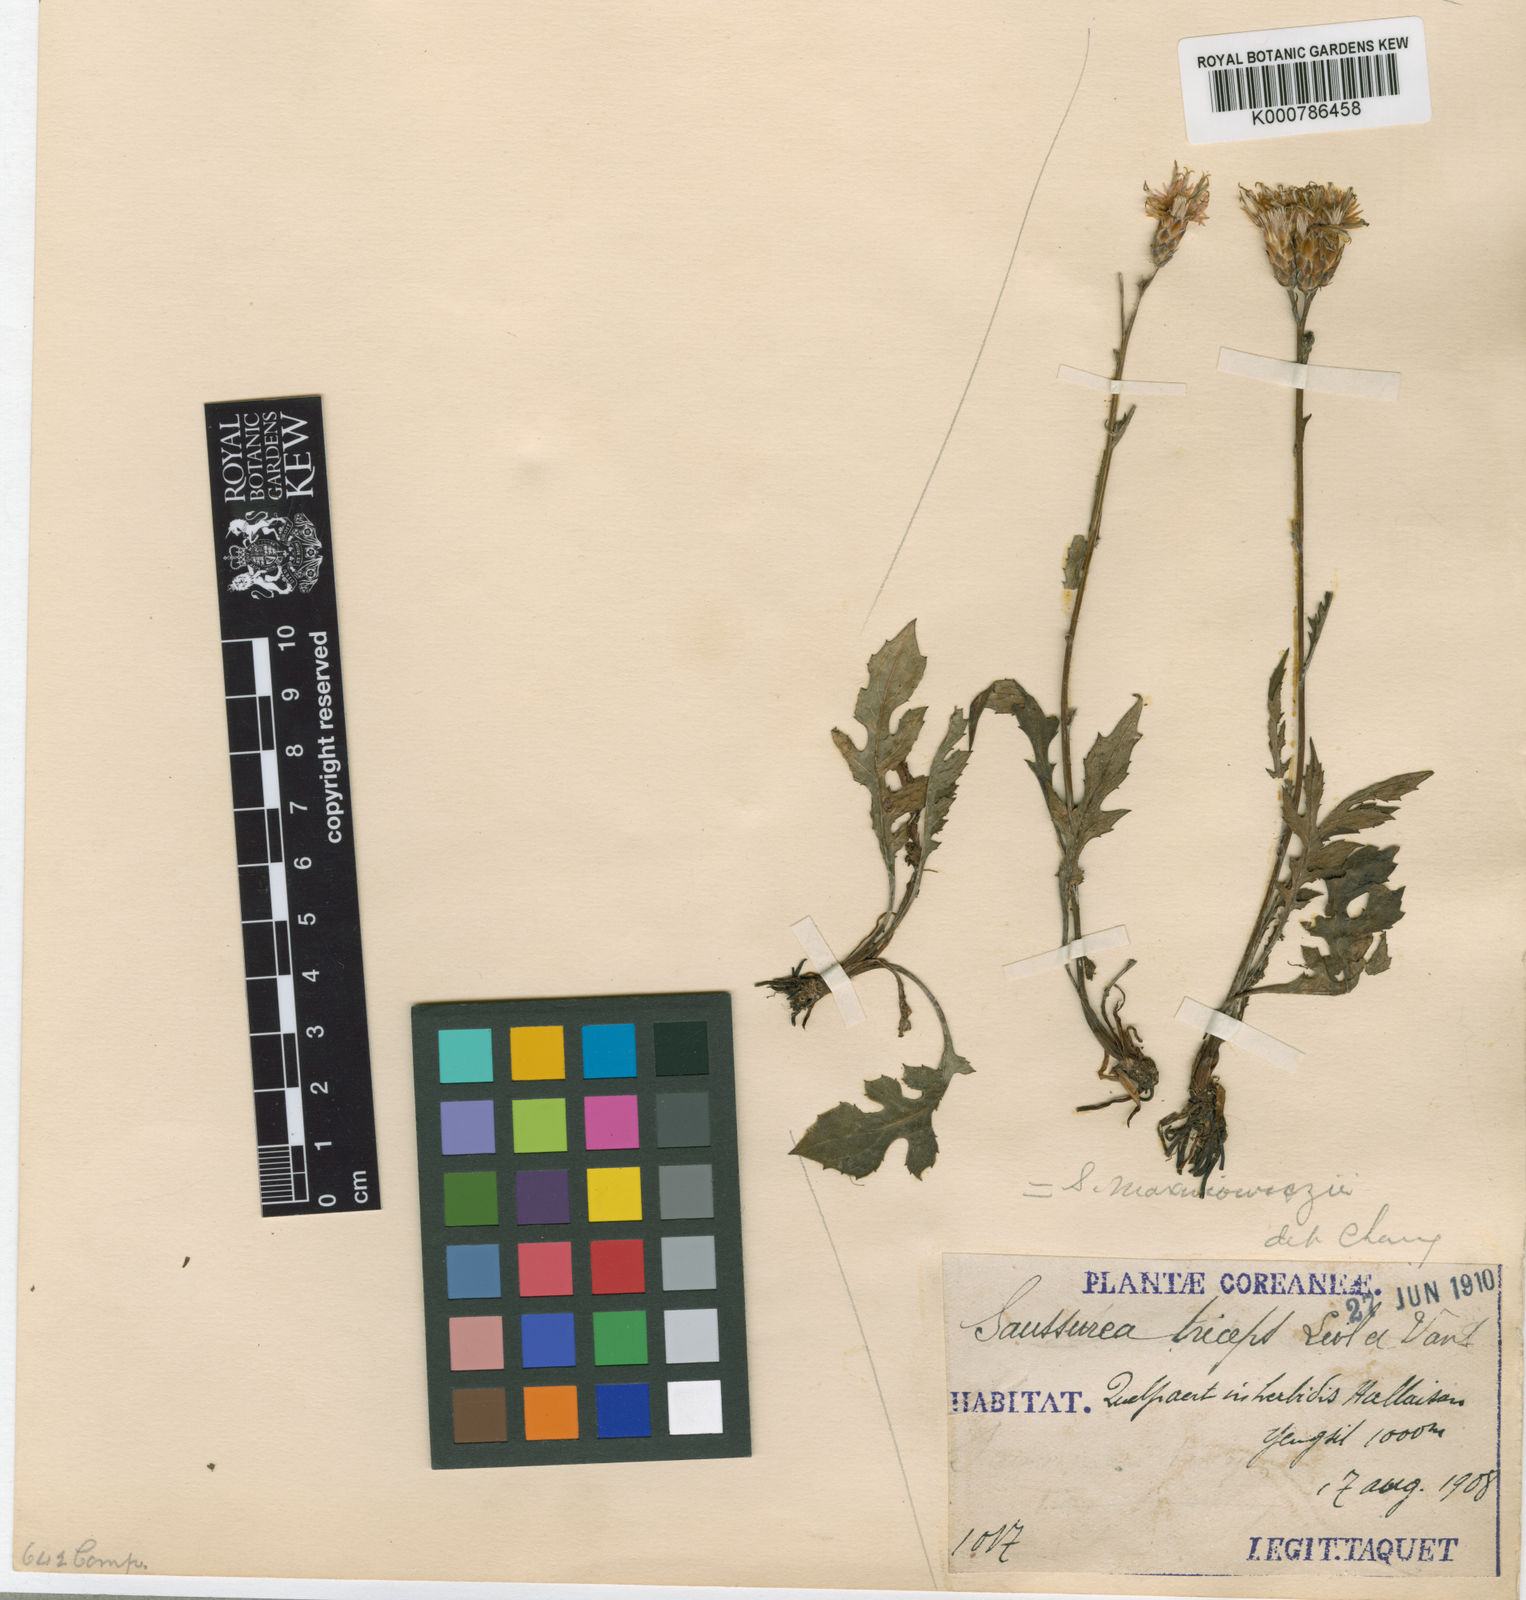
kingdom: Plantae
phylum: Tracheophyta
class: Magnoliopsida
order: Asterales
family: Asteraceae
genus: Saussurea
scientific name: Saussurea maximowiczii
